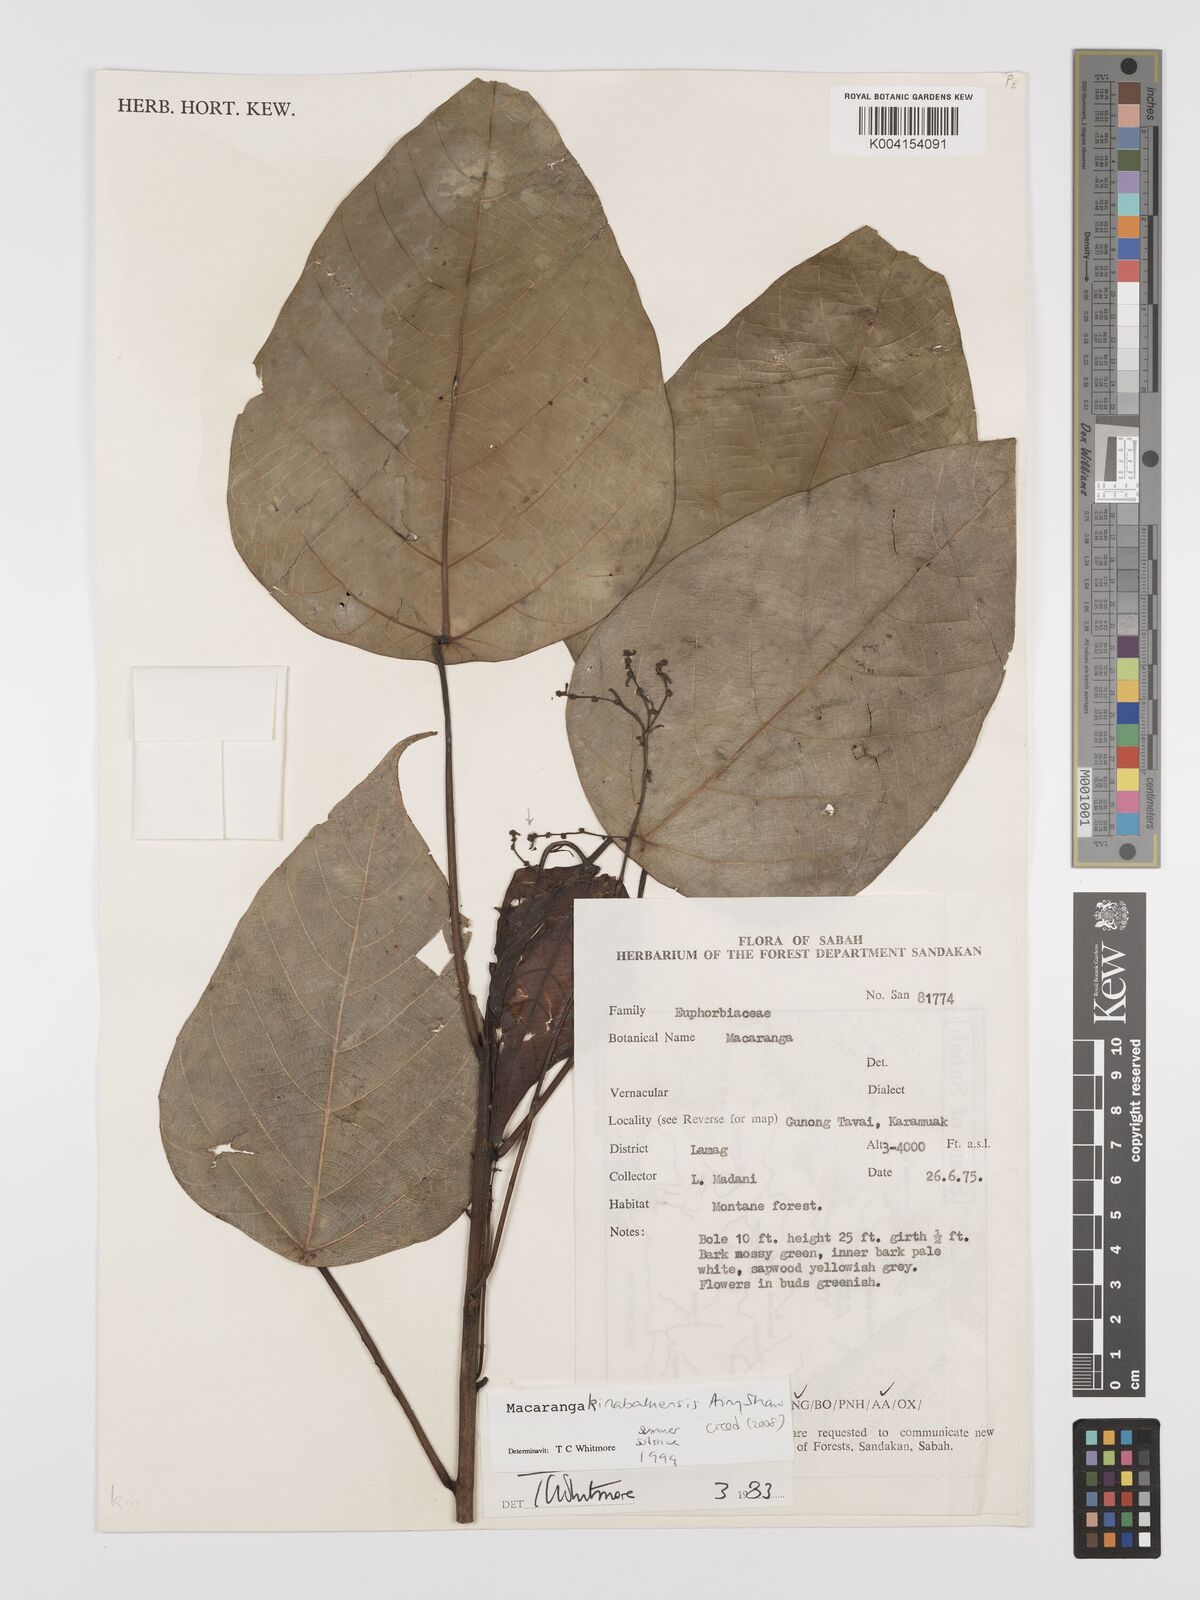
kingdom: Plantae
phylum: Tracheophyta
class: Magnoliopsida
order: Malpighiales
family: Euphorbiaceae
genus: Macaranga
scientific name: Macaranga kinabaluensis
